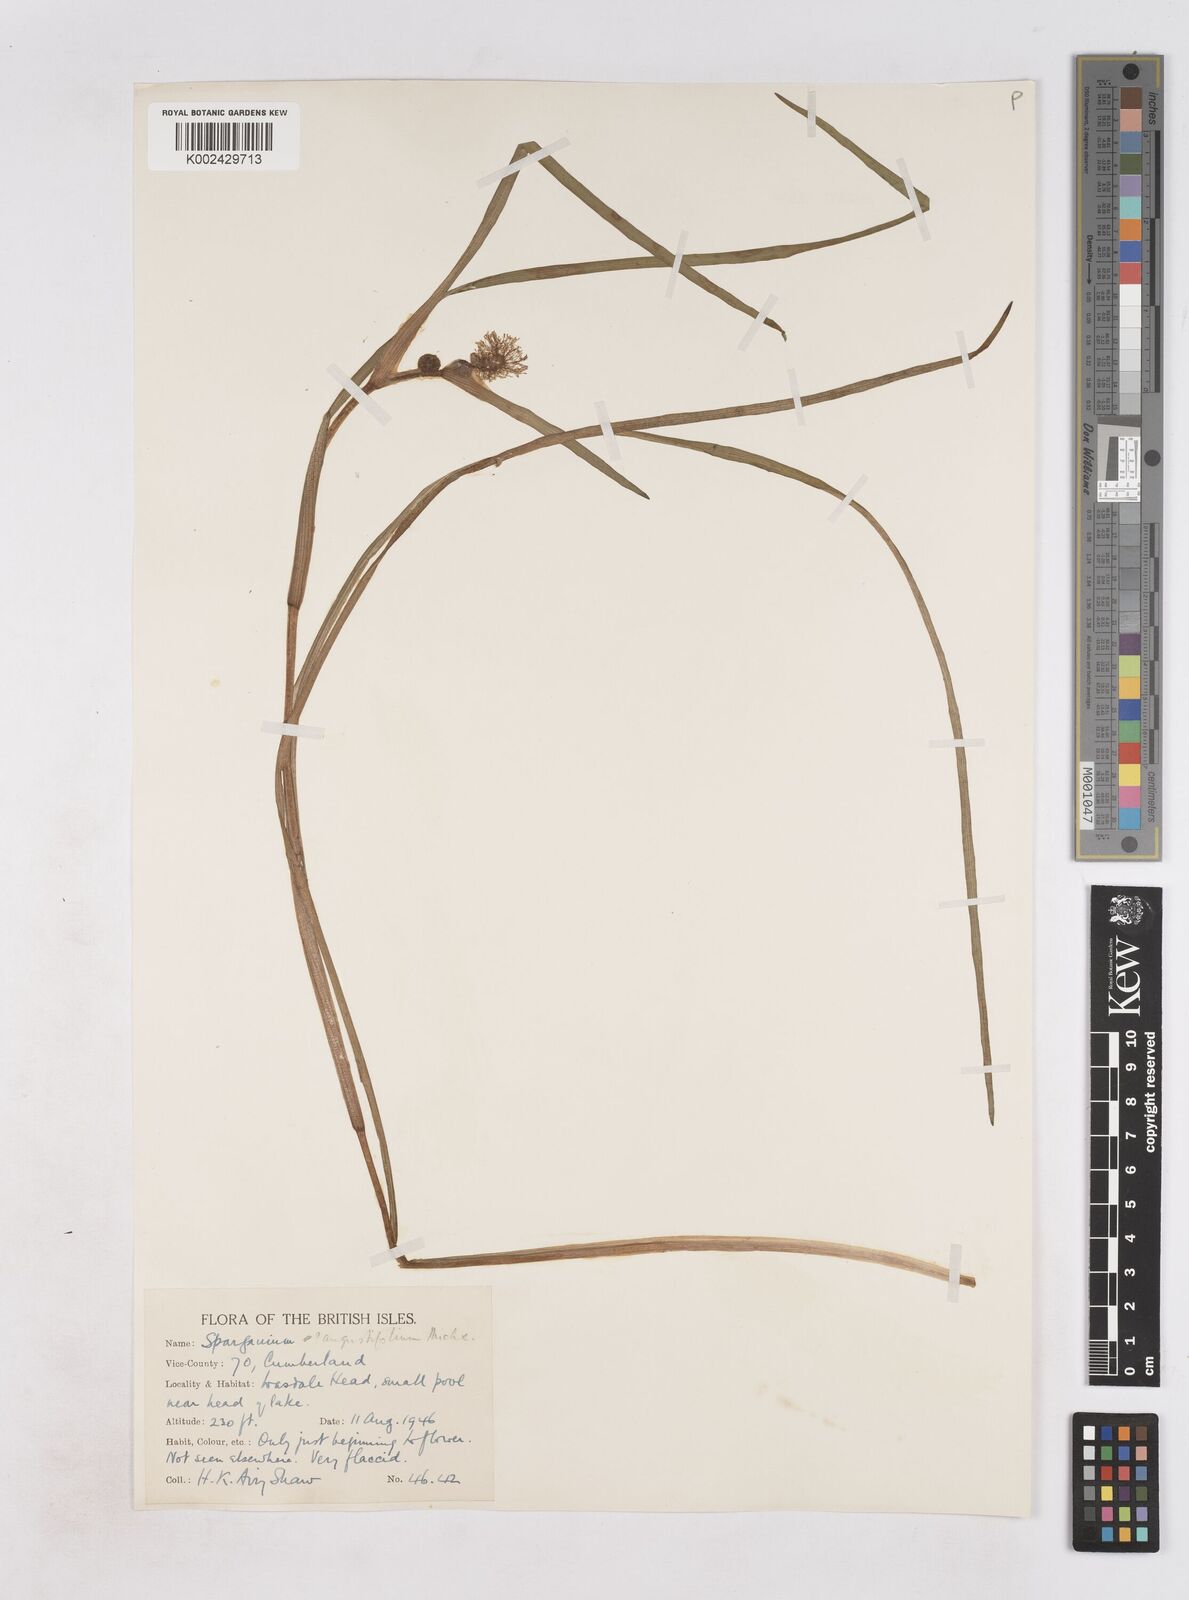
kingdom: Plantae
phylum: Tracheophyta
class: Liliopsida
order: Poales
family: Typhaceae
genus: Sparganium
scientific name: Sparganium angustifolium
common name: Floating bur-reed
